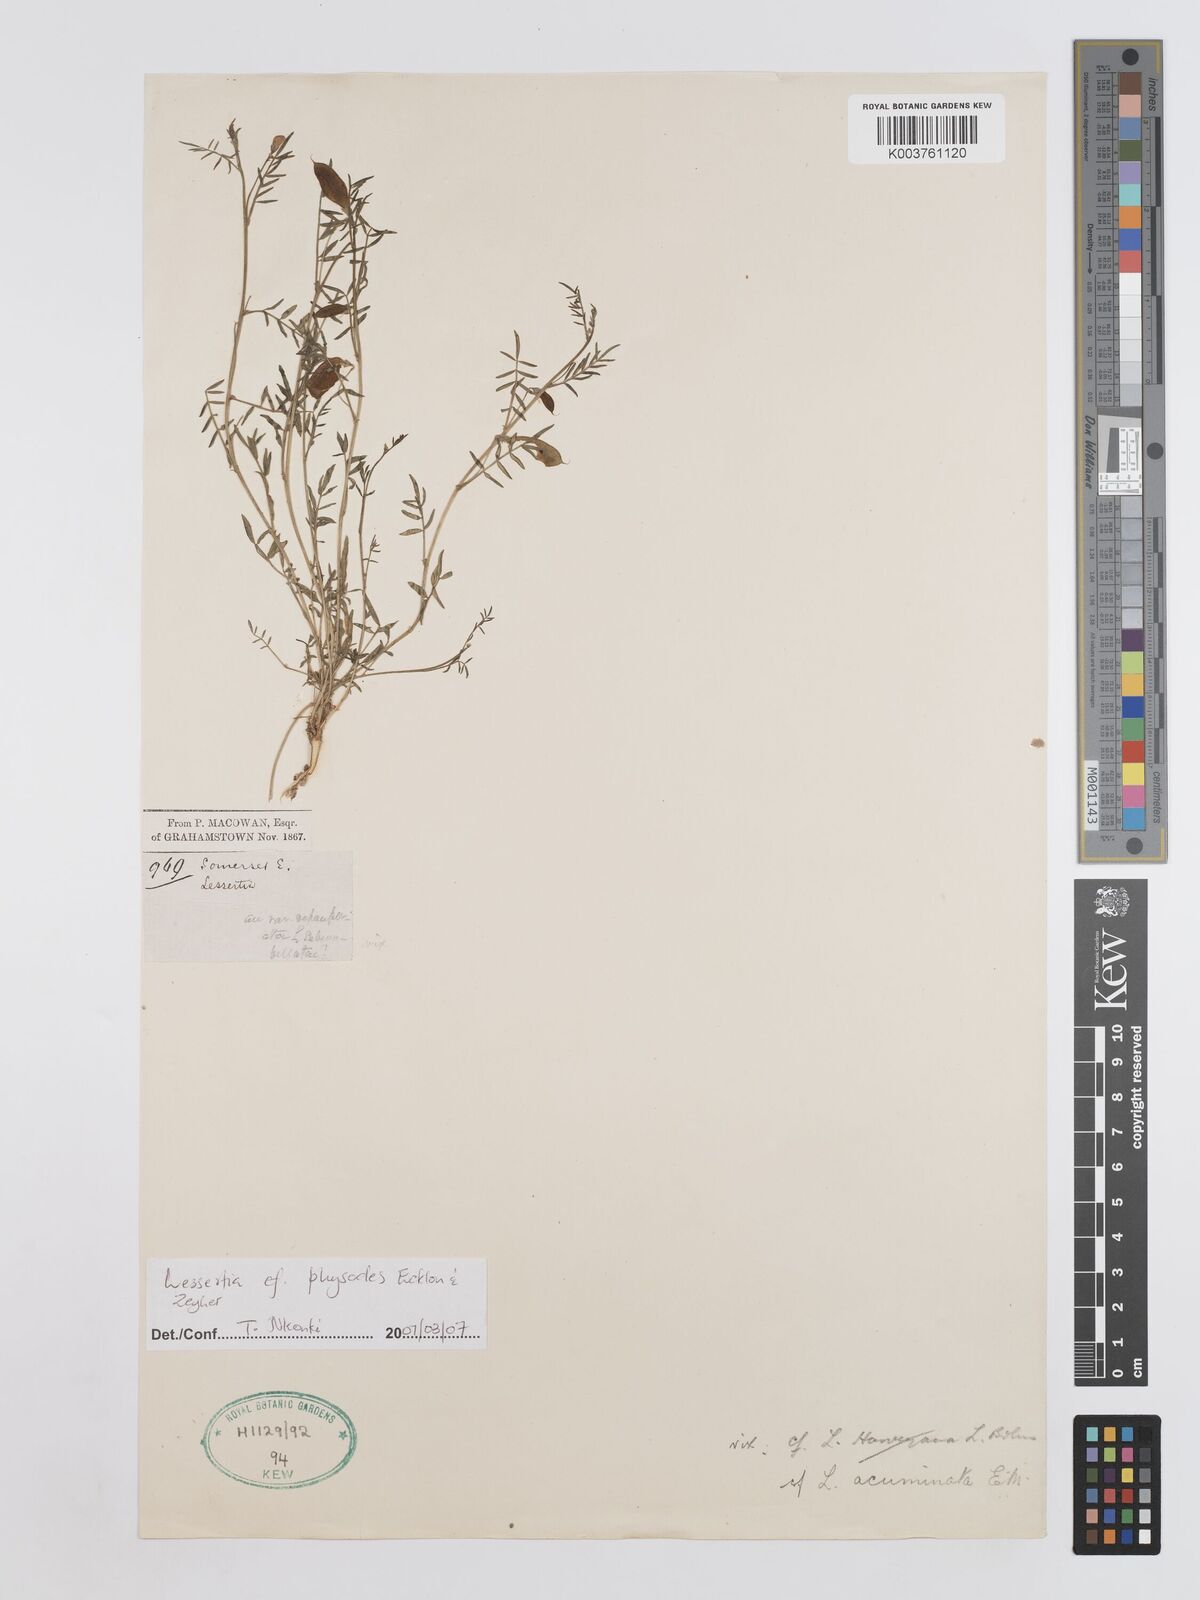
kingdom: Plantae
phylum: Tracheophyta
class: Magnoliopsida
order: Fabales
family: Fabaceae
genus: Lessertia
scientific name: Lessertia physodes
